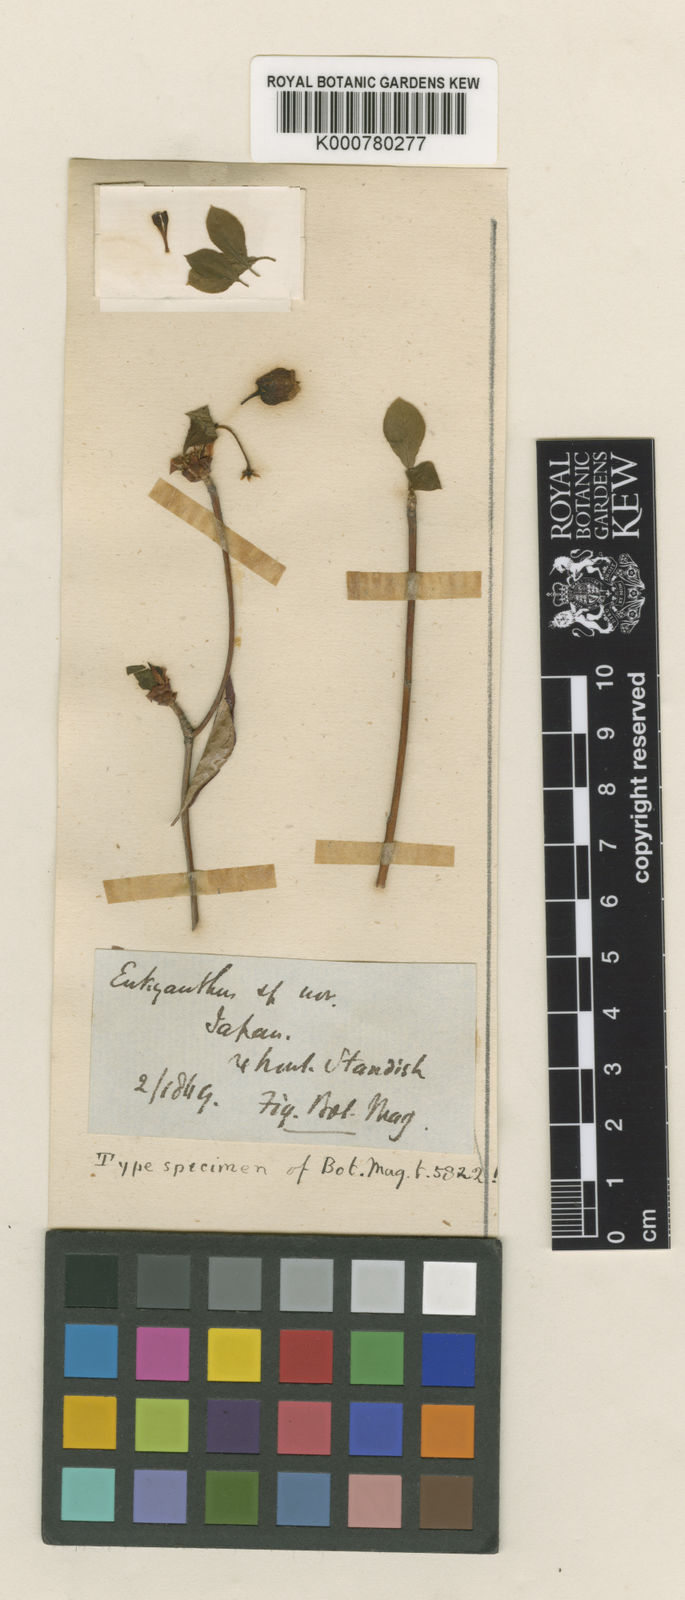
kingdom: Plantae
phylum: Tracheophyta
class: Magnoliopsida
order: Ericales
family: Ericaceae
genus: Enkianthus
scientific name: Enkianthus perulatus
